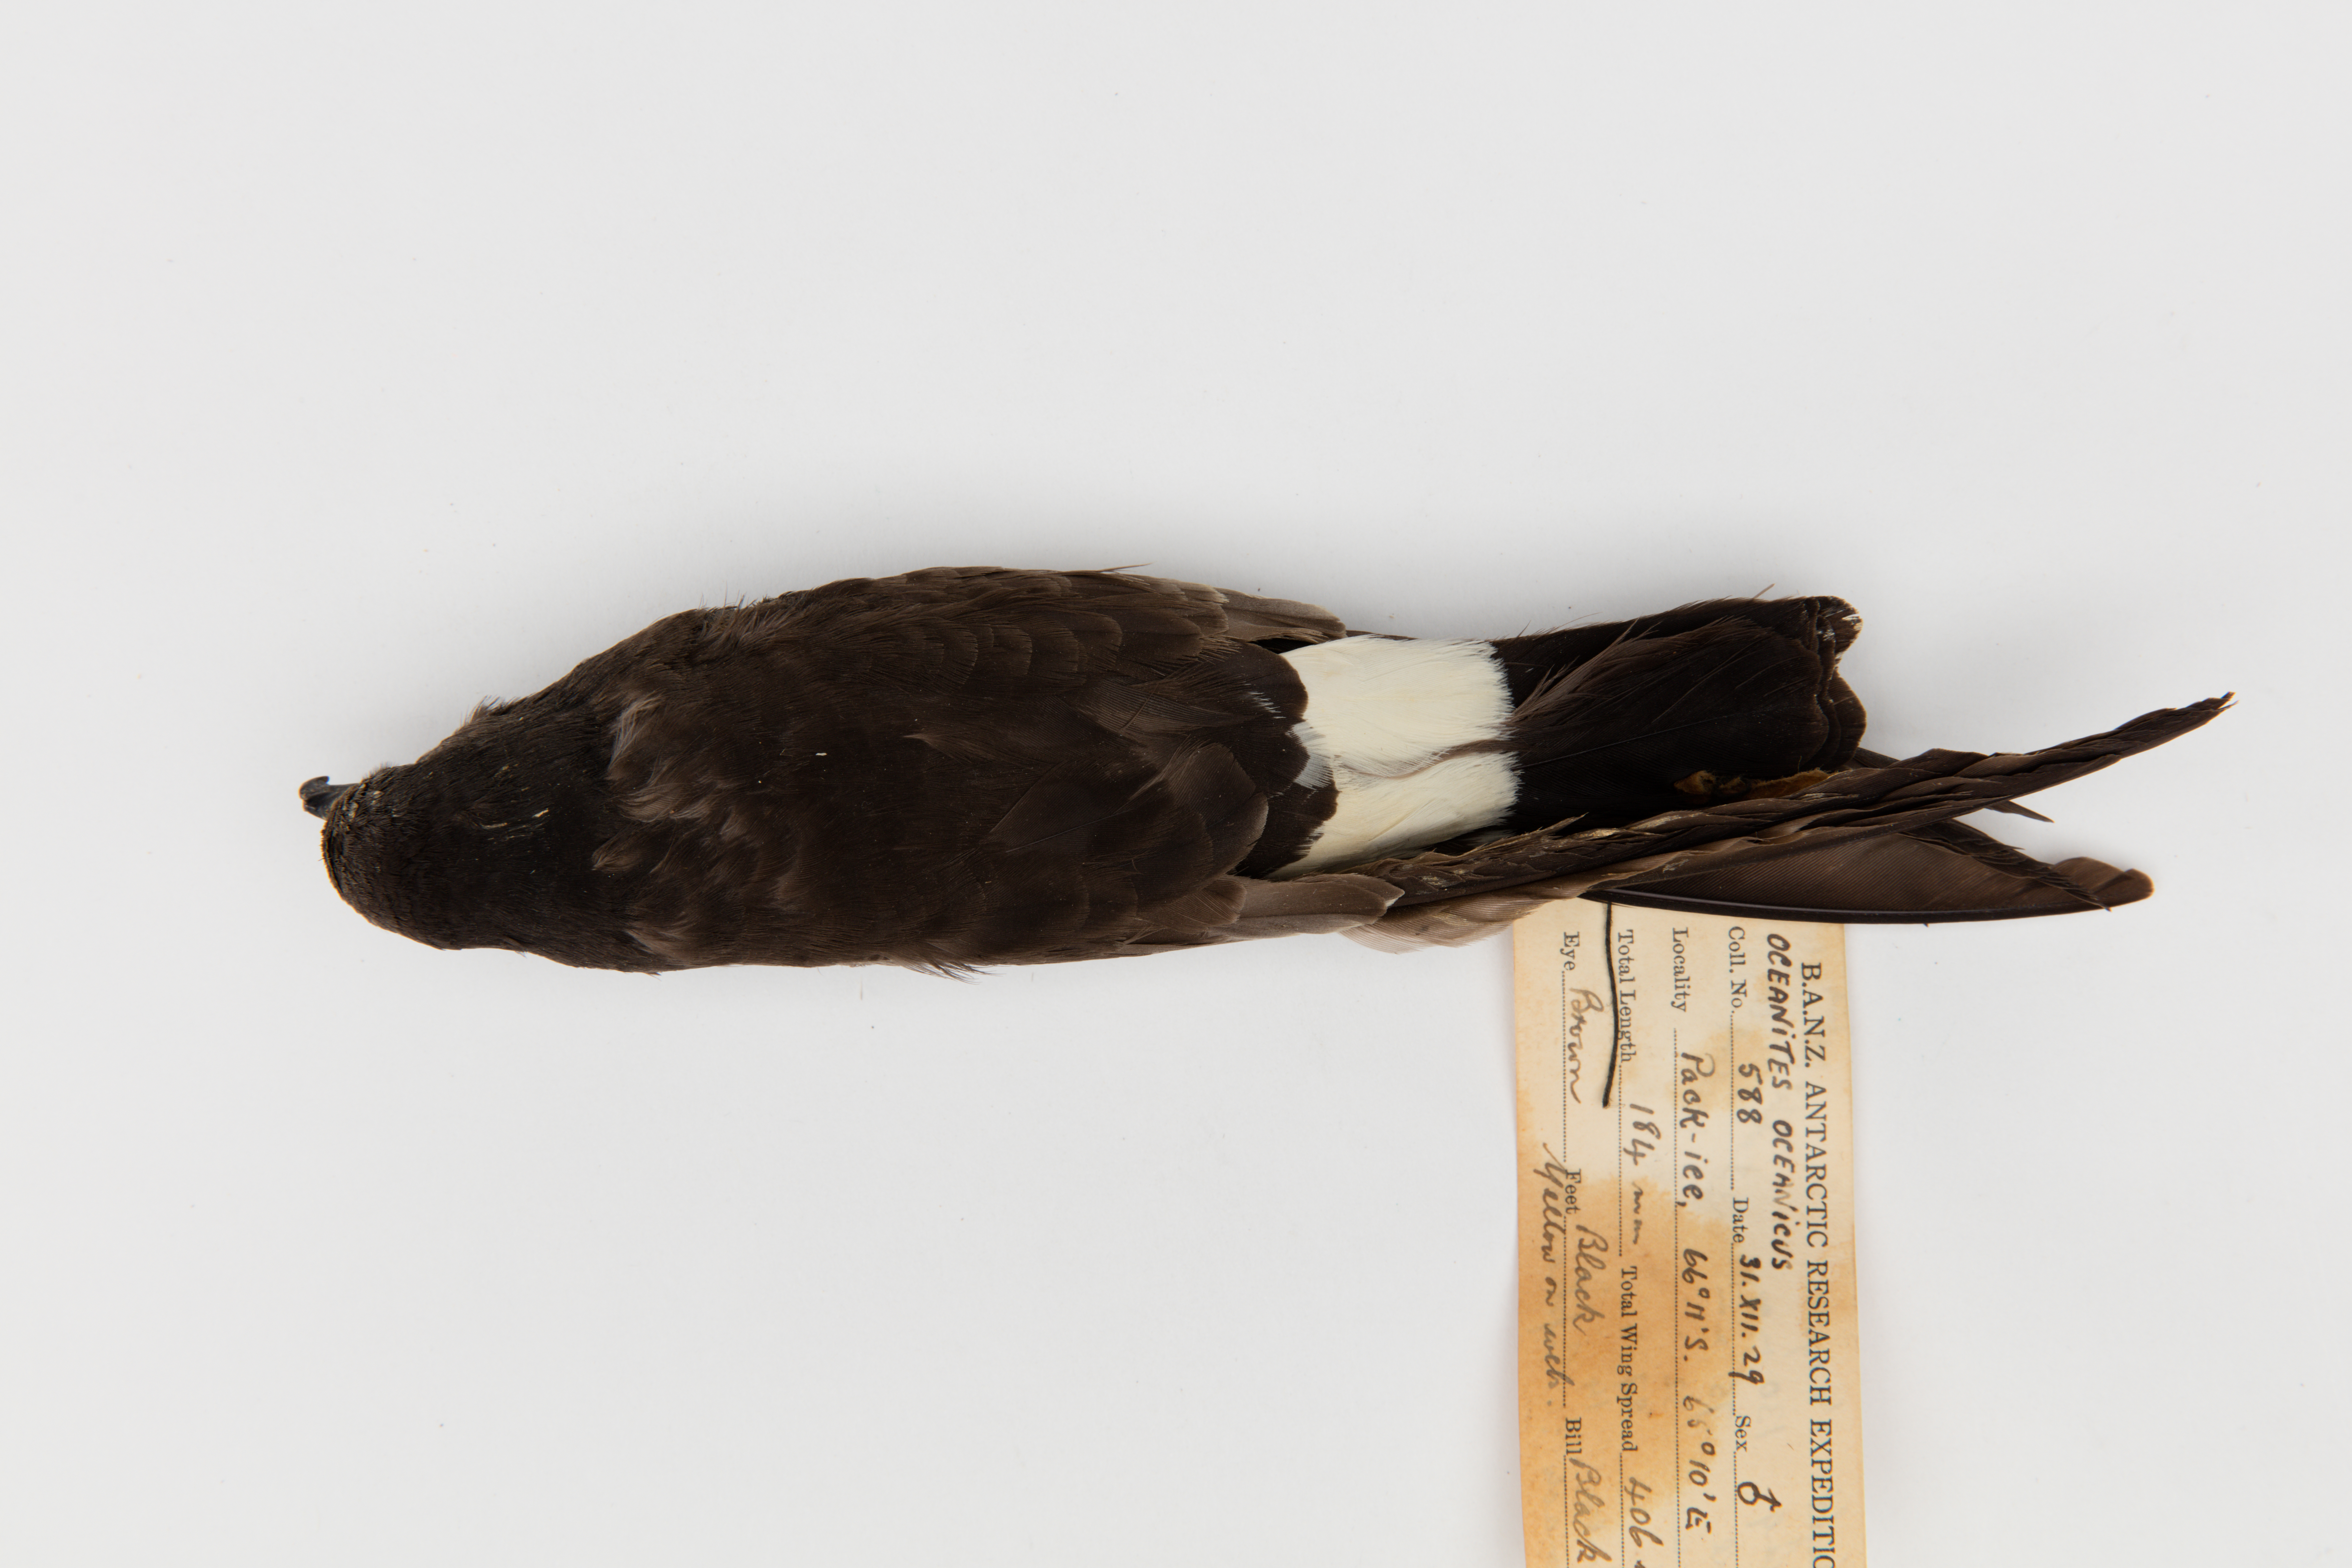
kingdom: Animalia
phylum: Chordata
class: Aves
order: Procellariiformes
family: Hydrobatidae
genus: Oceanites
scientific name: Oceanites oceanicus
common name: Wilson's storm petrel
